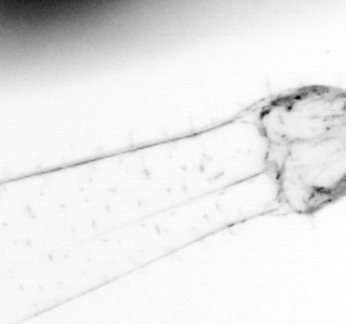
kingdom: Animalia
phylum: Chaetognatha
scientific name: Chaetognatha
